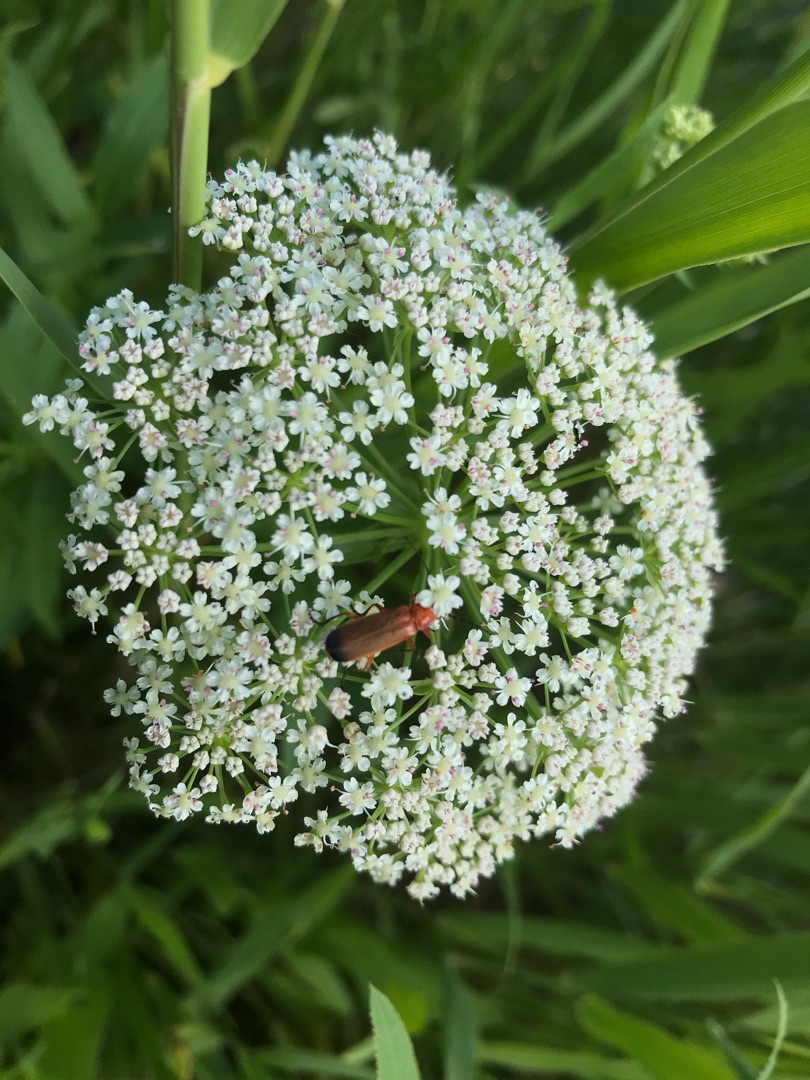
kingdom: Animalia
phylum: Arthropoda
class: Insecta
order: Coleoptera
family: Cantharidae
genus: Rhagonycha
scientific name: Rhagonycha fulva
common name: Præstebille
